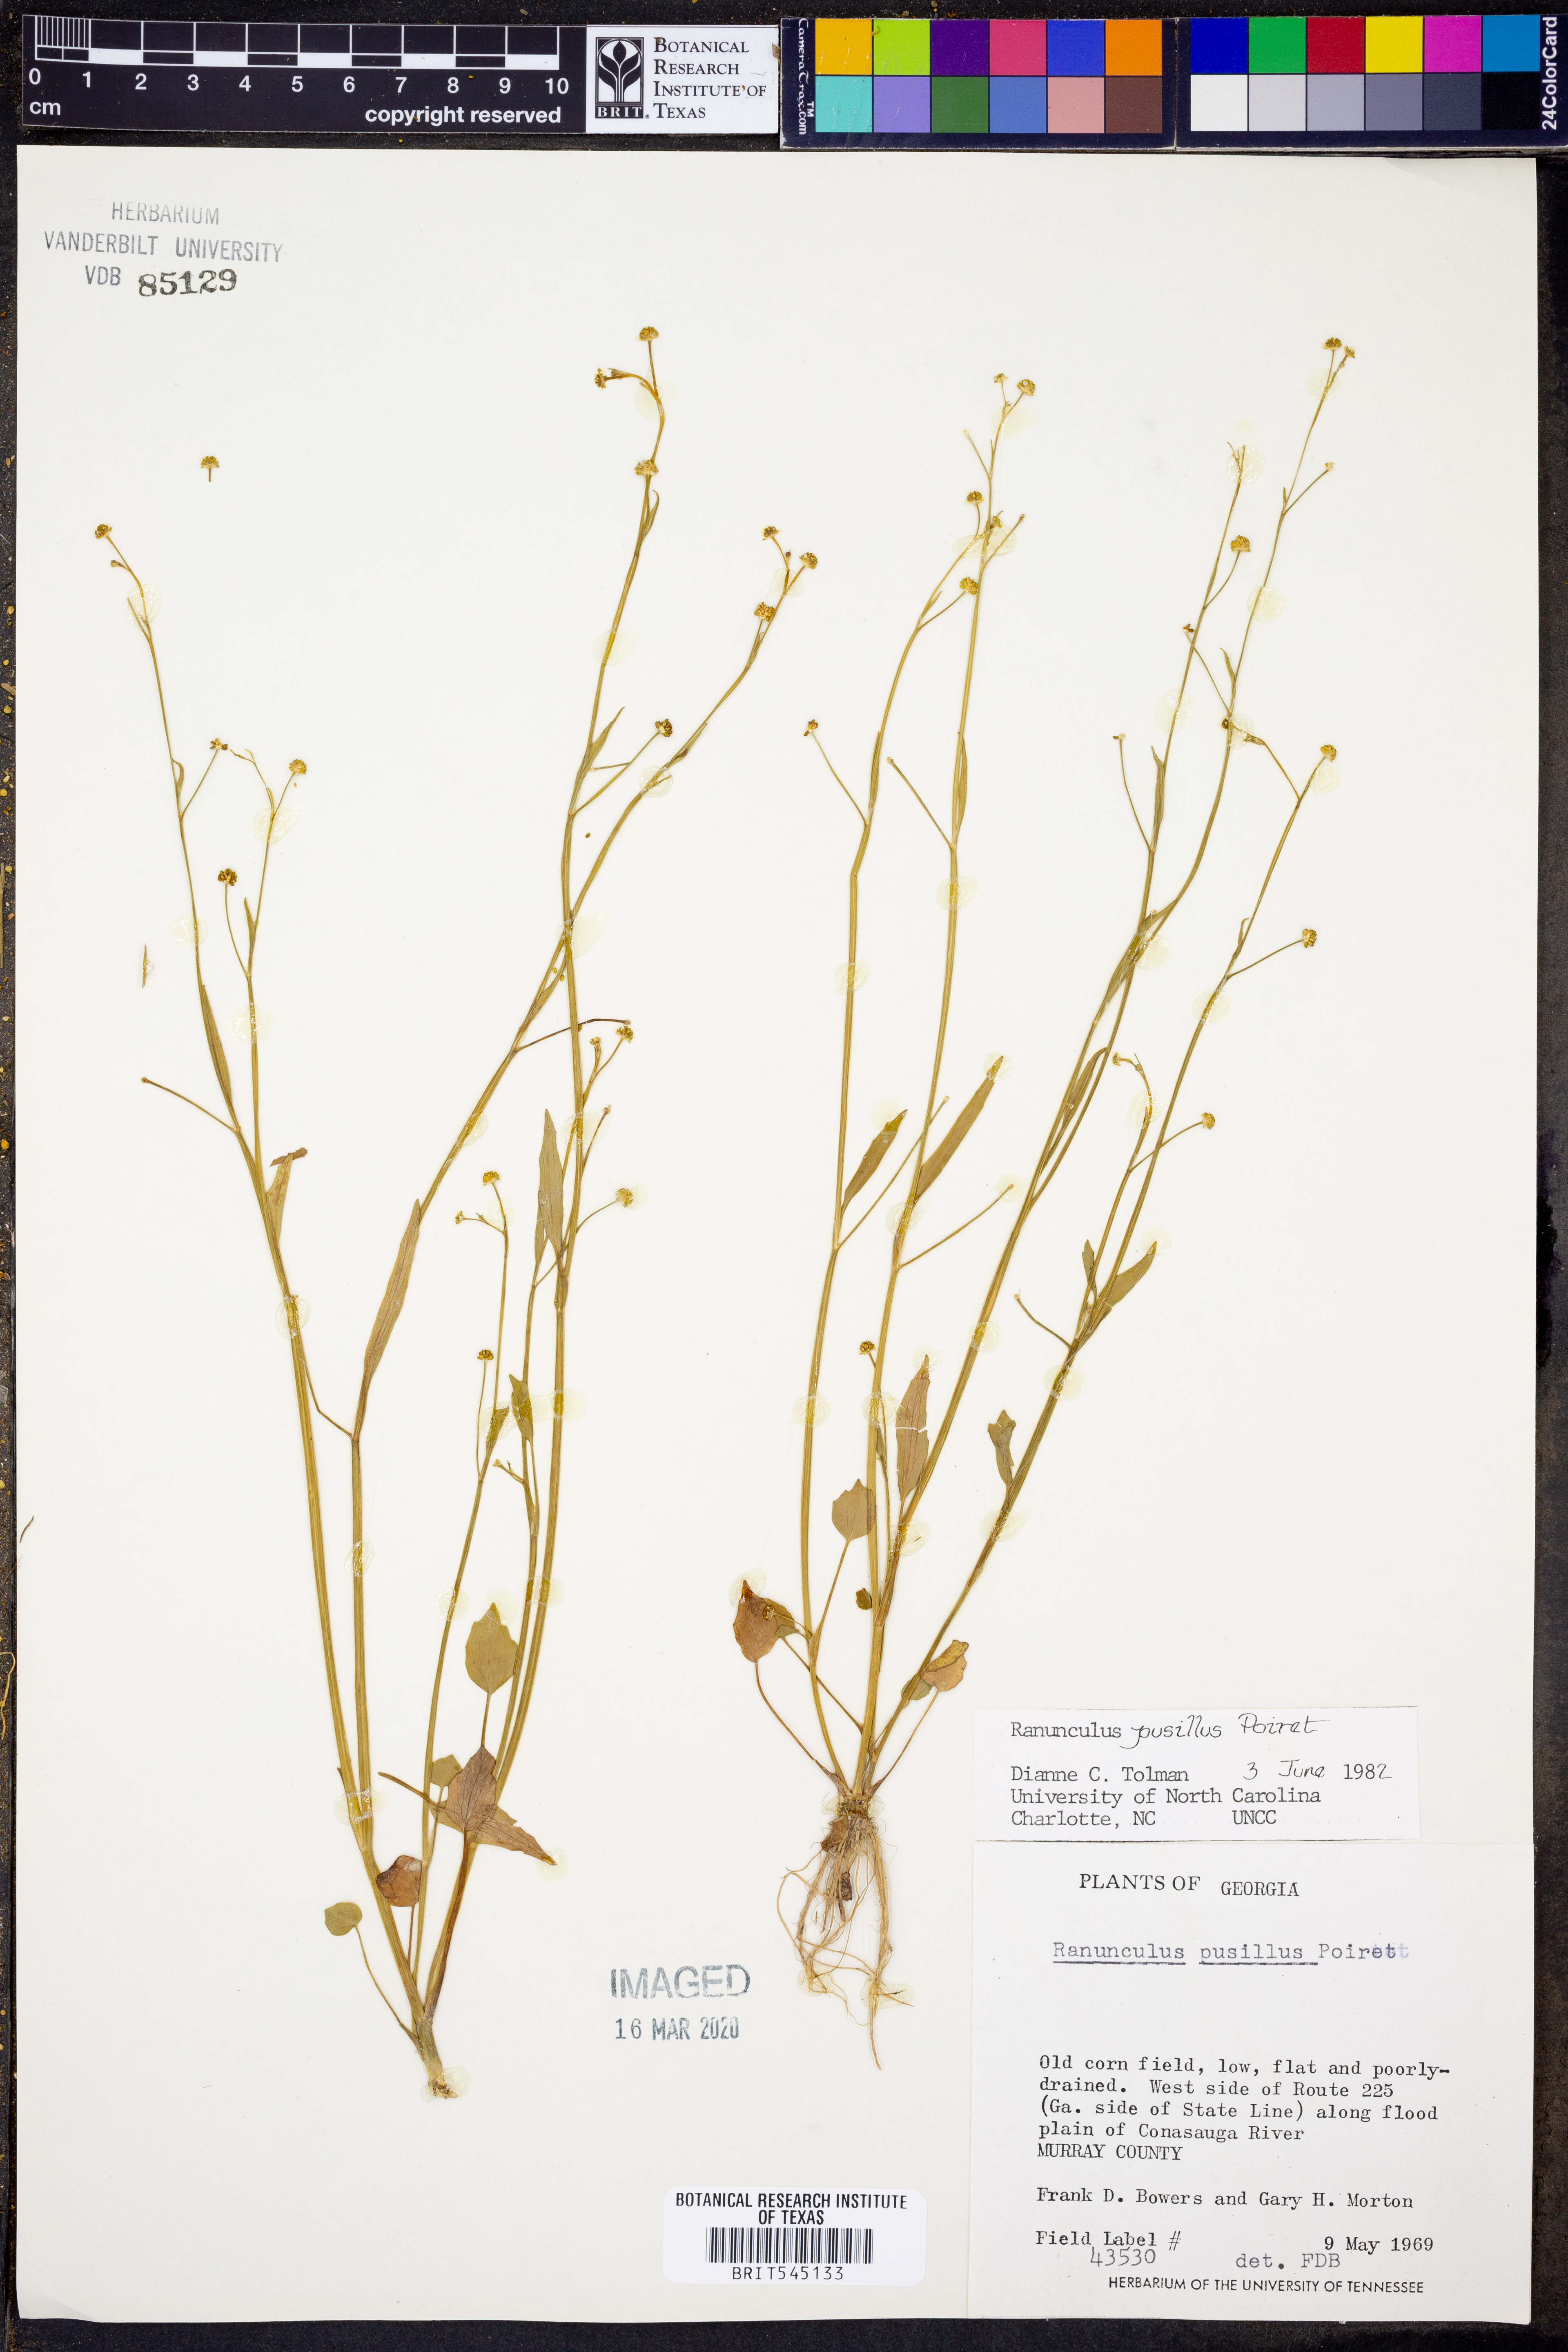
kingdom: Plantae
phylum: Tracheophyta
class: Magnoliopsida
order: Ranunculales
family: Ranunculaceae
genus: Ranunculus
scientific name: Ranunculus pusillus
